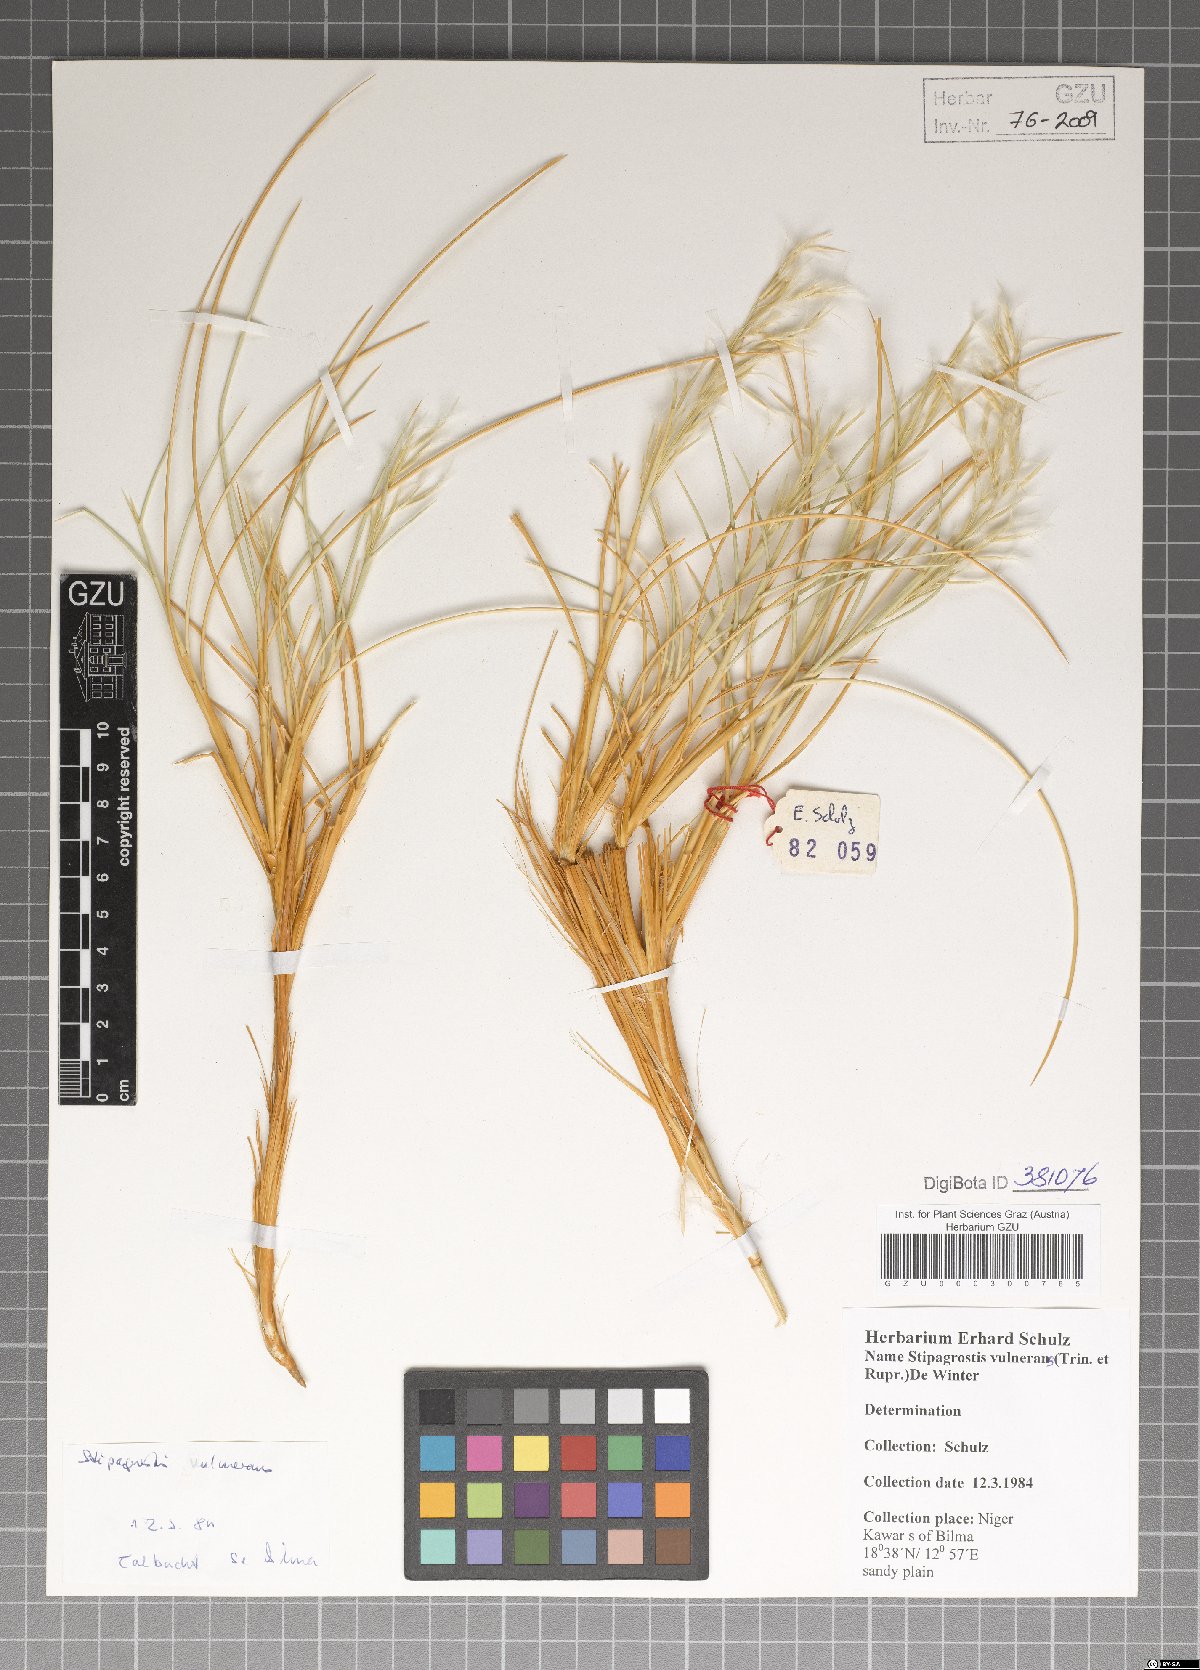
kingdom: Plantae
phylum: Tracheophyta
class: Liliopsida
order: Poales
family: Poaceae
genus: Stipagrostis
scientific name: Stipagrostis vulnerans
